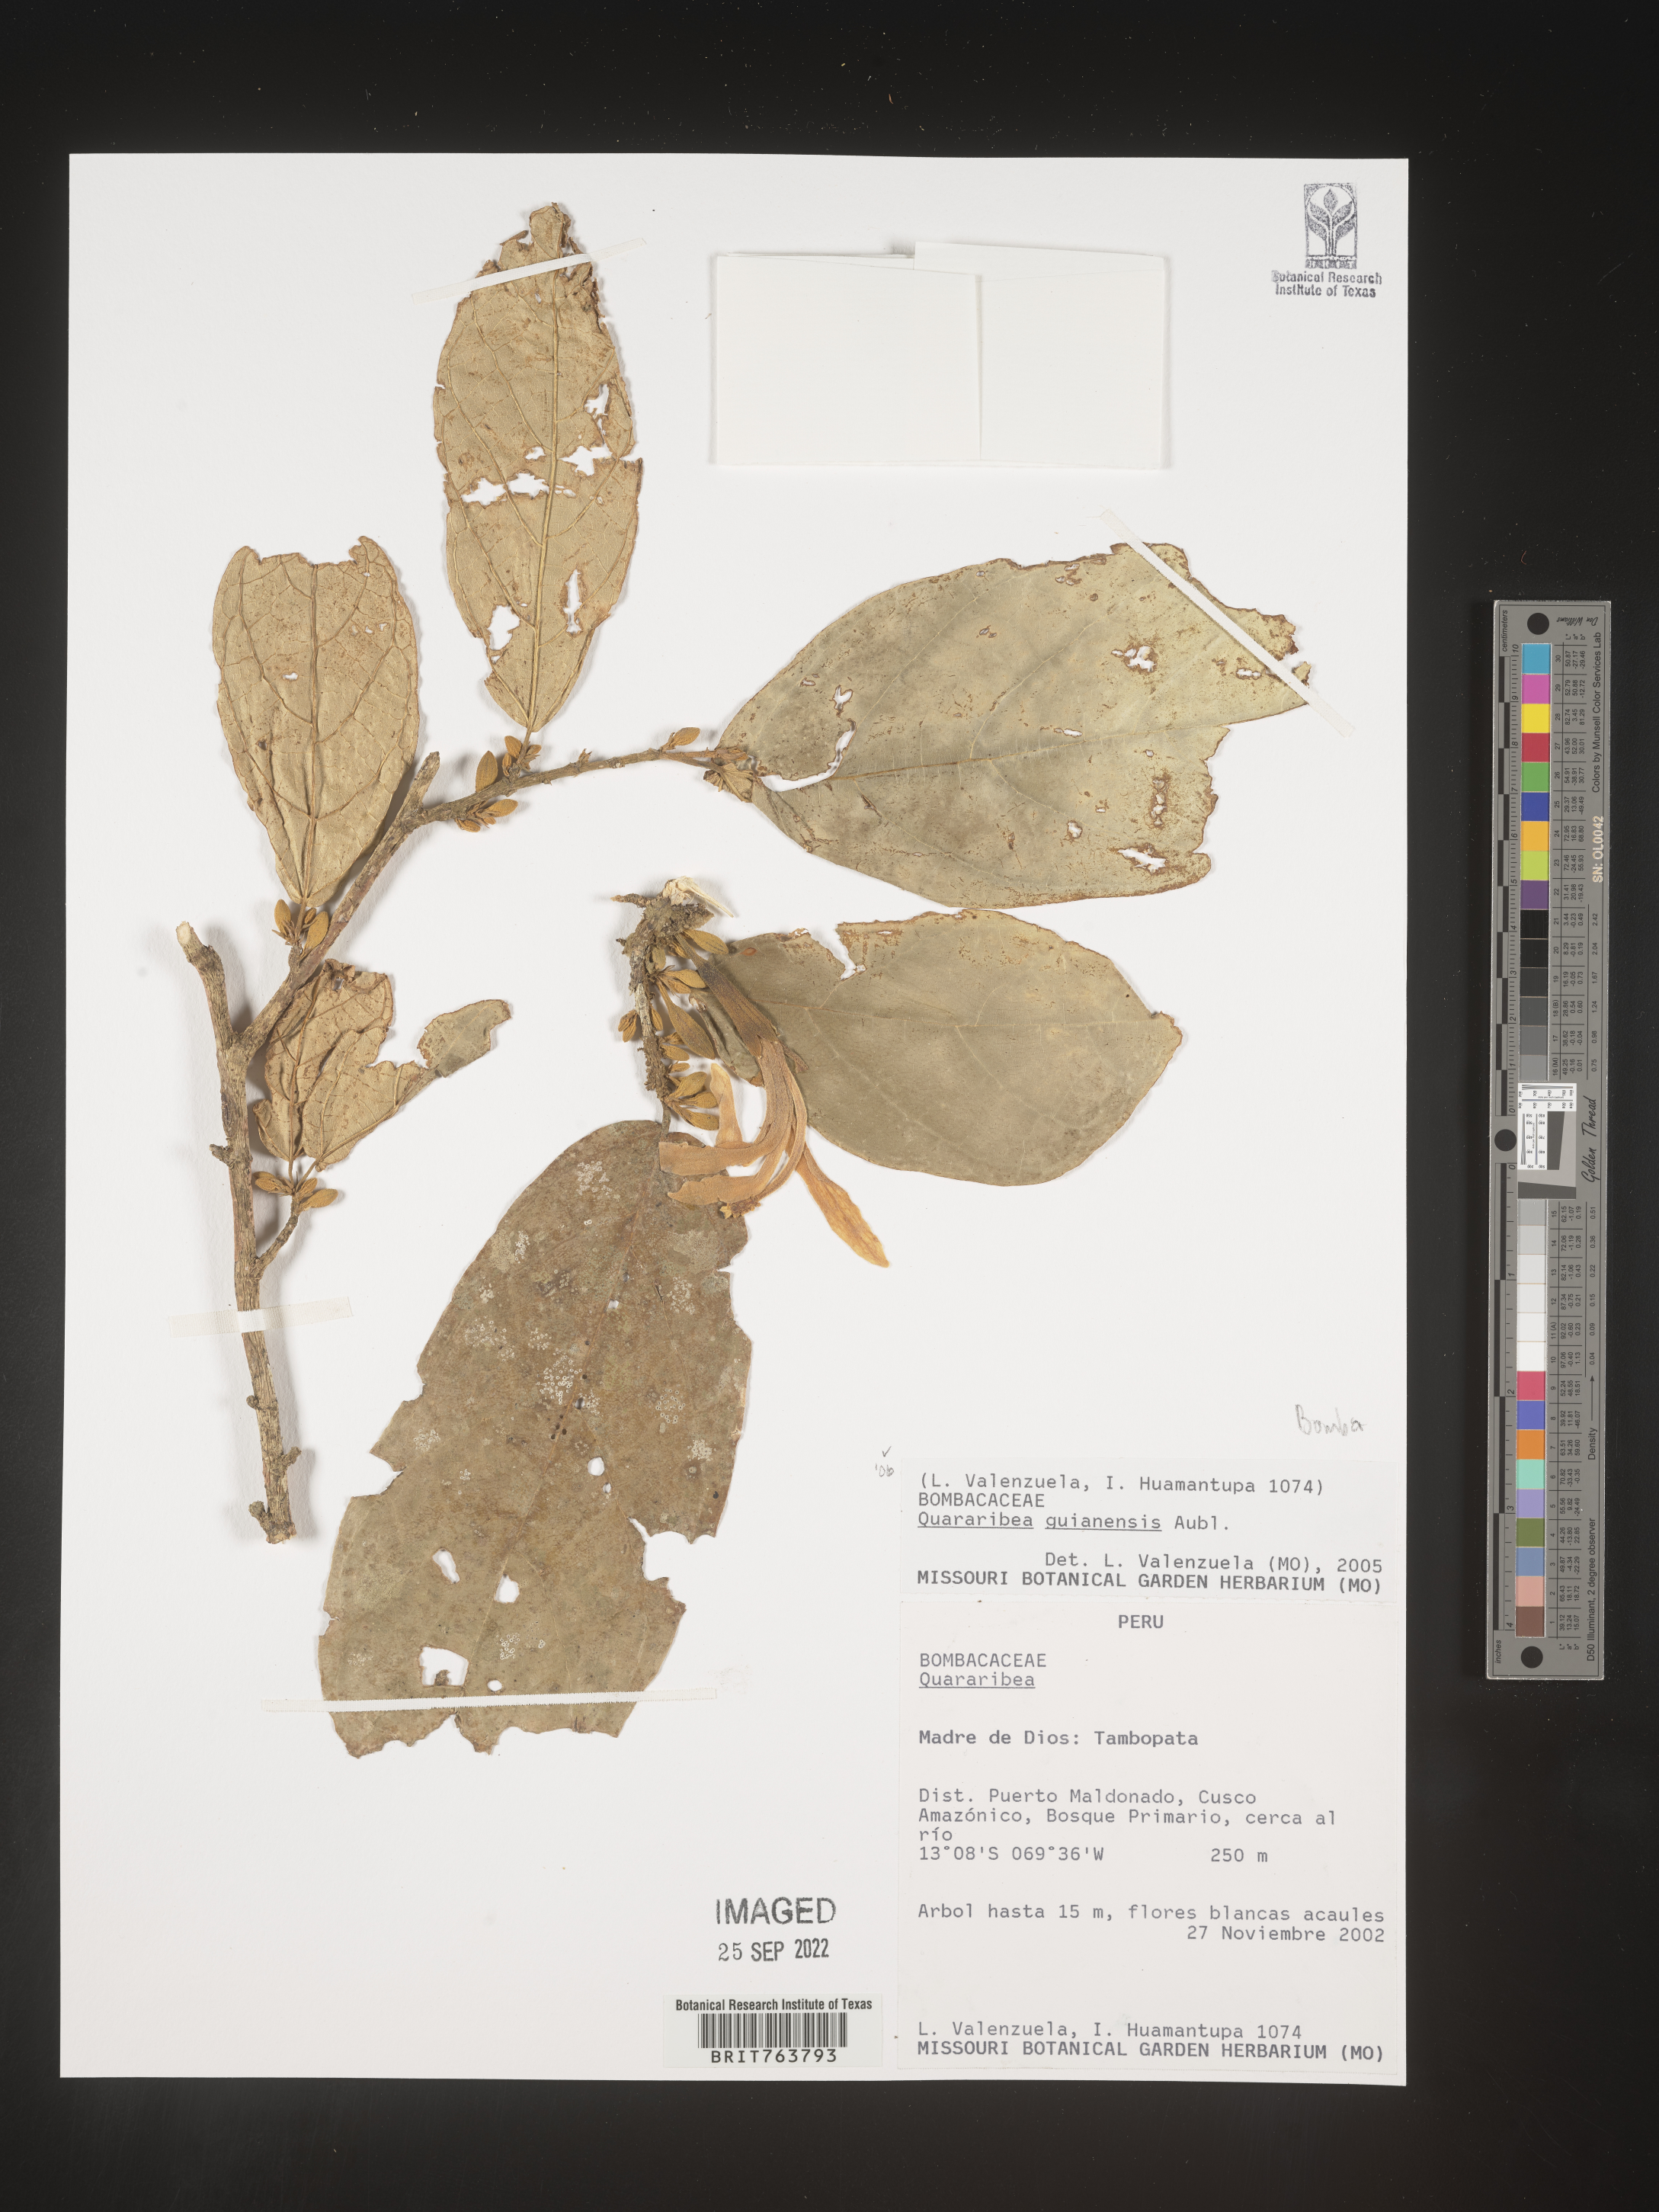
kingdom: Plantae
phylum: Tracheophyta
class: Magnoliopsida
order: Malvales
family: Malvaceae
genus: Quararibea
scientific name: Quararibea
